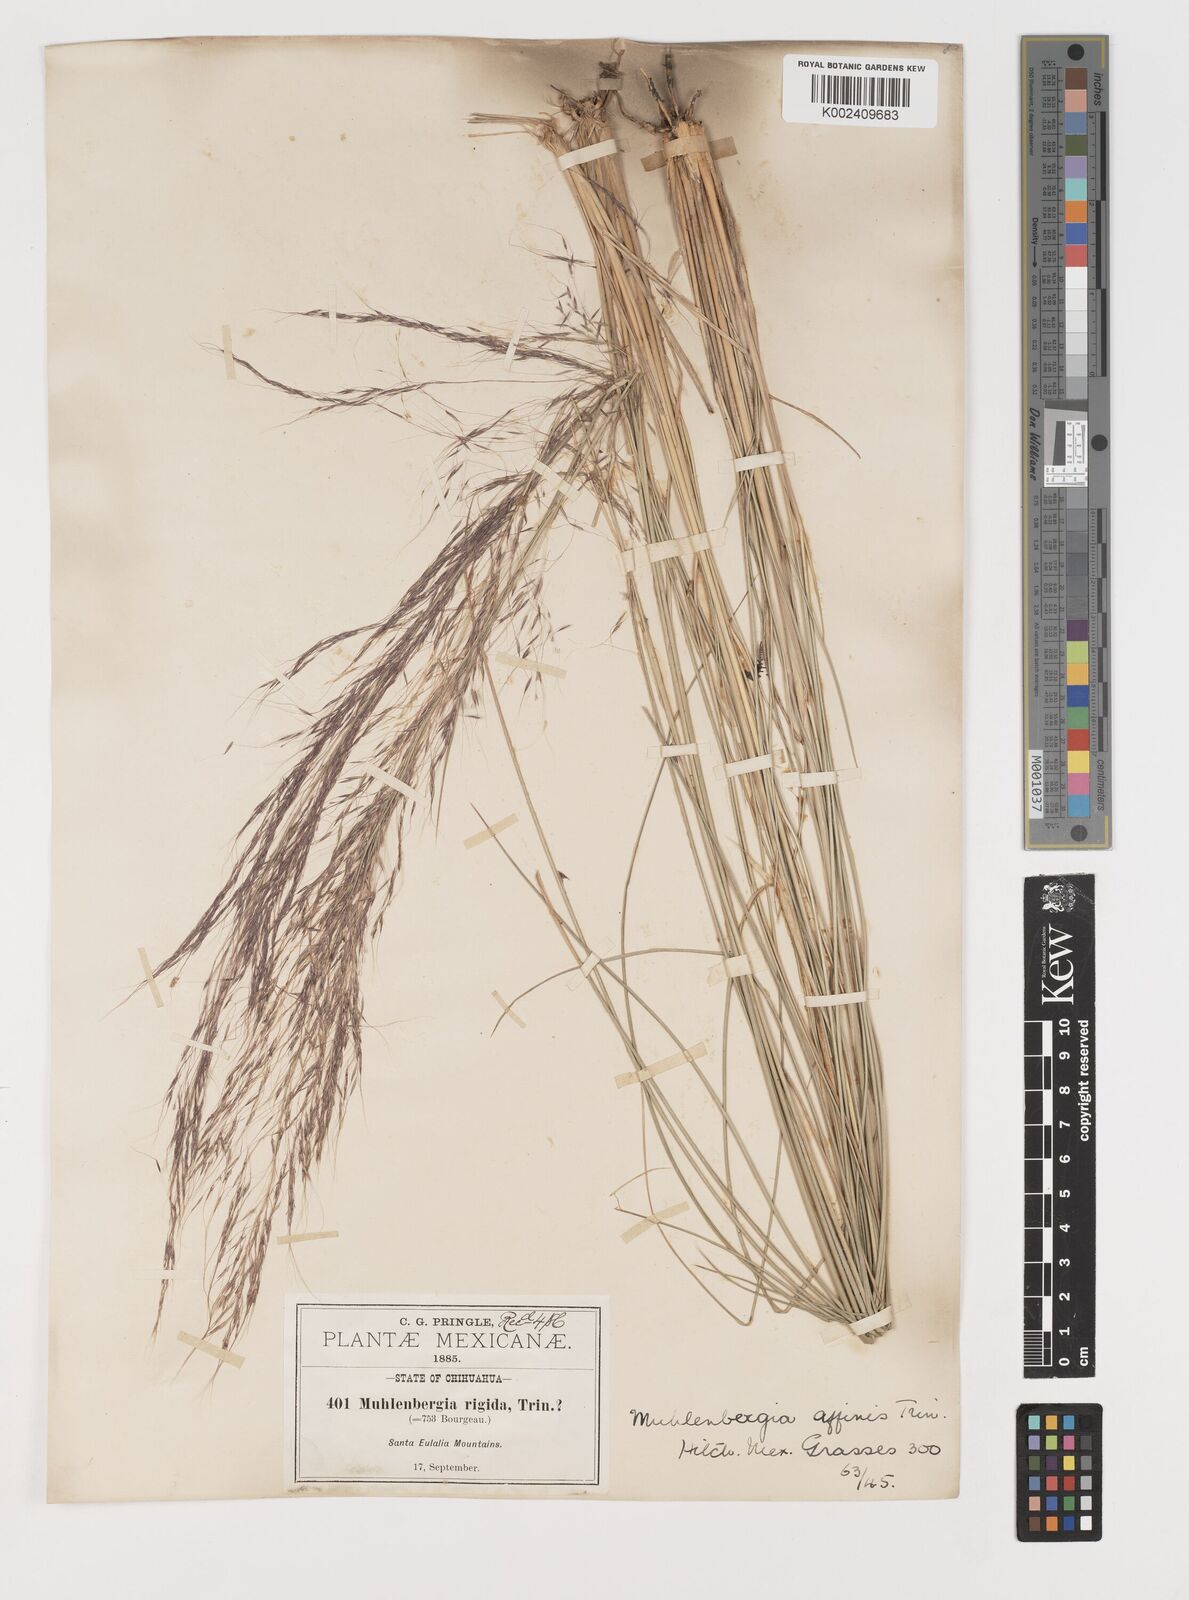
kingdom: Plantae
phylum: Tracheophyta
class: Liliopsida
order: Poales
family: Poaceae
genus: Muhlenbergia
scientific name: Muhlenbergia rigida
